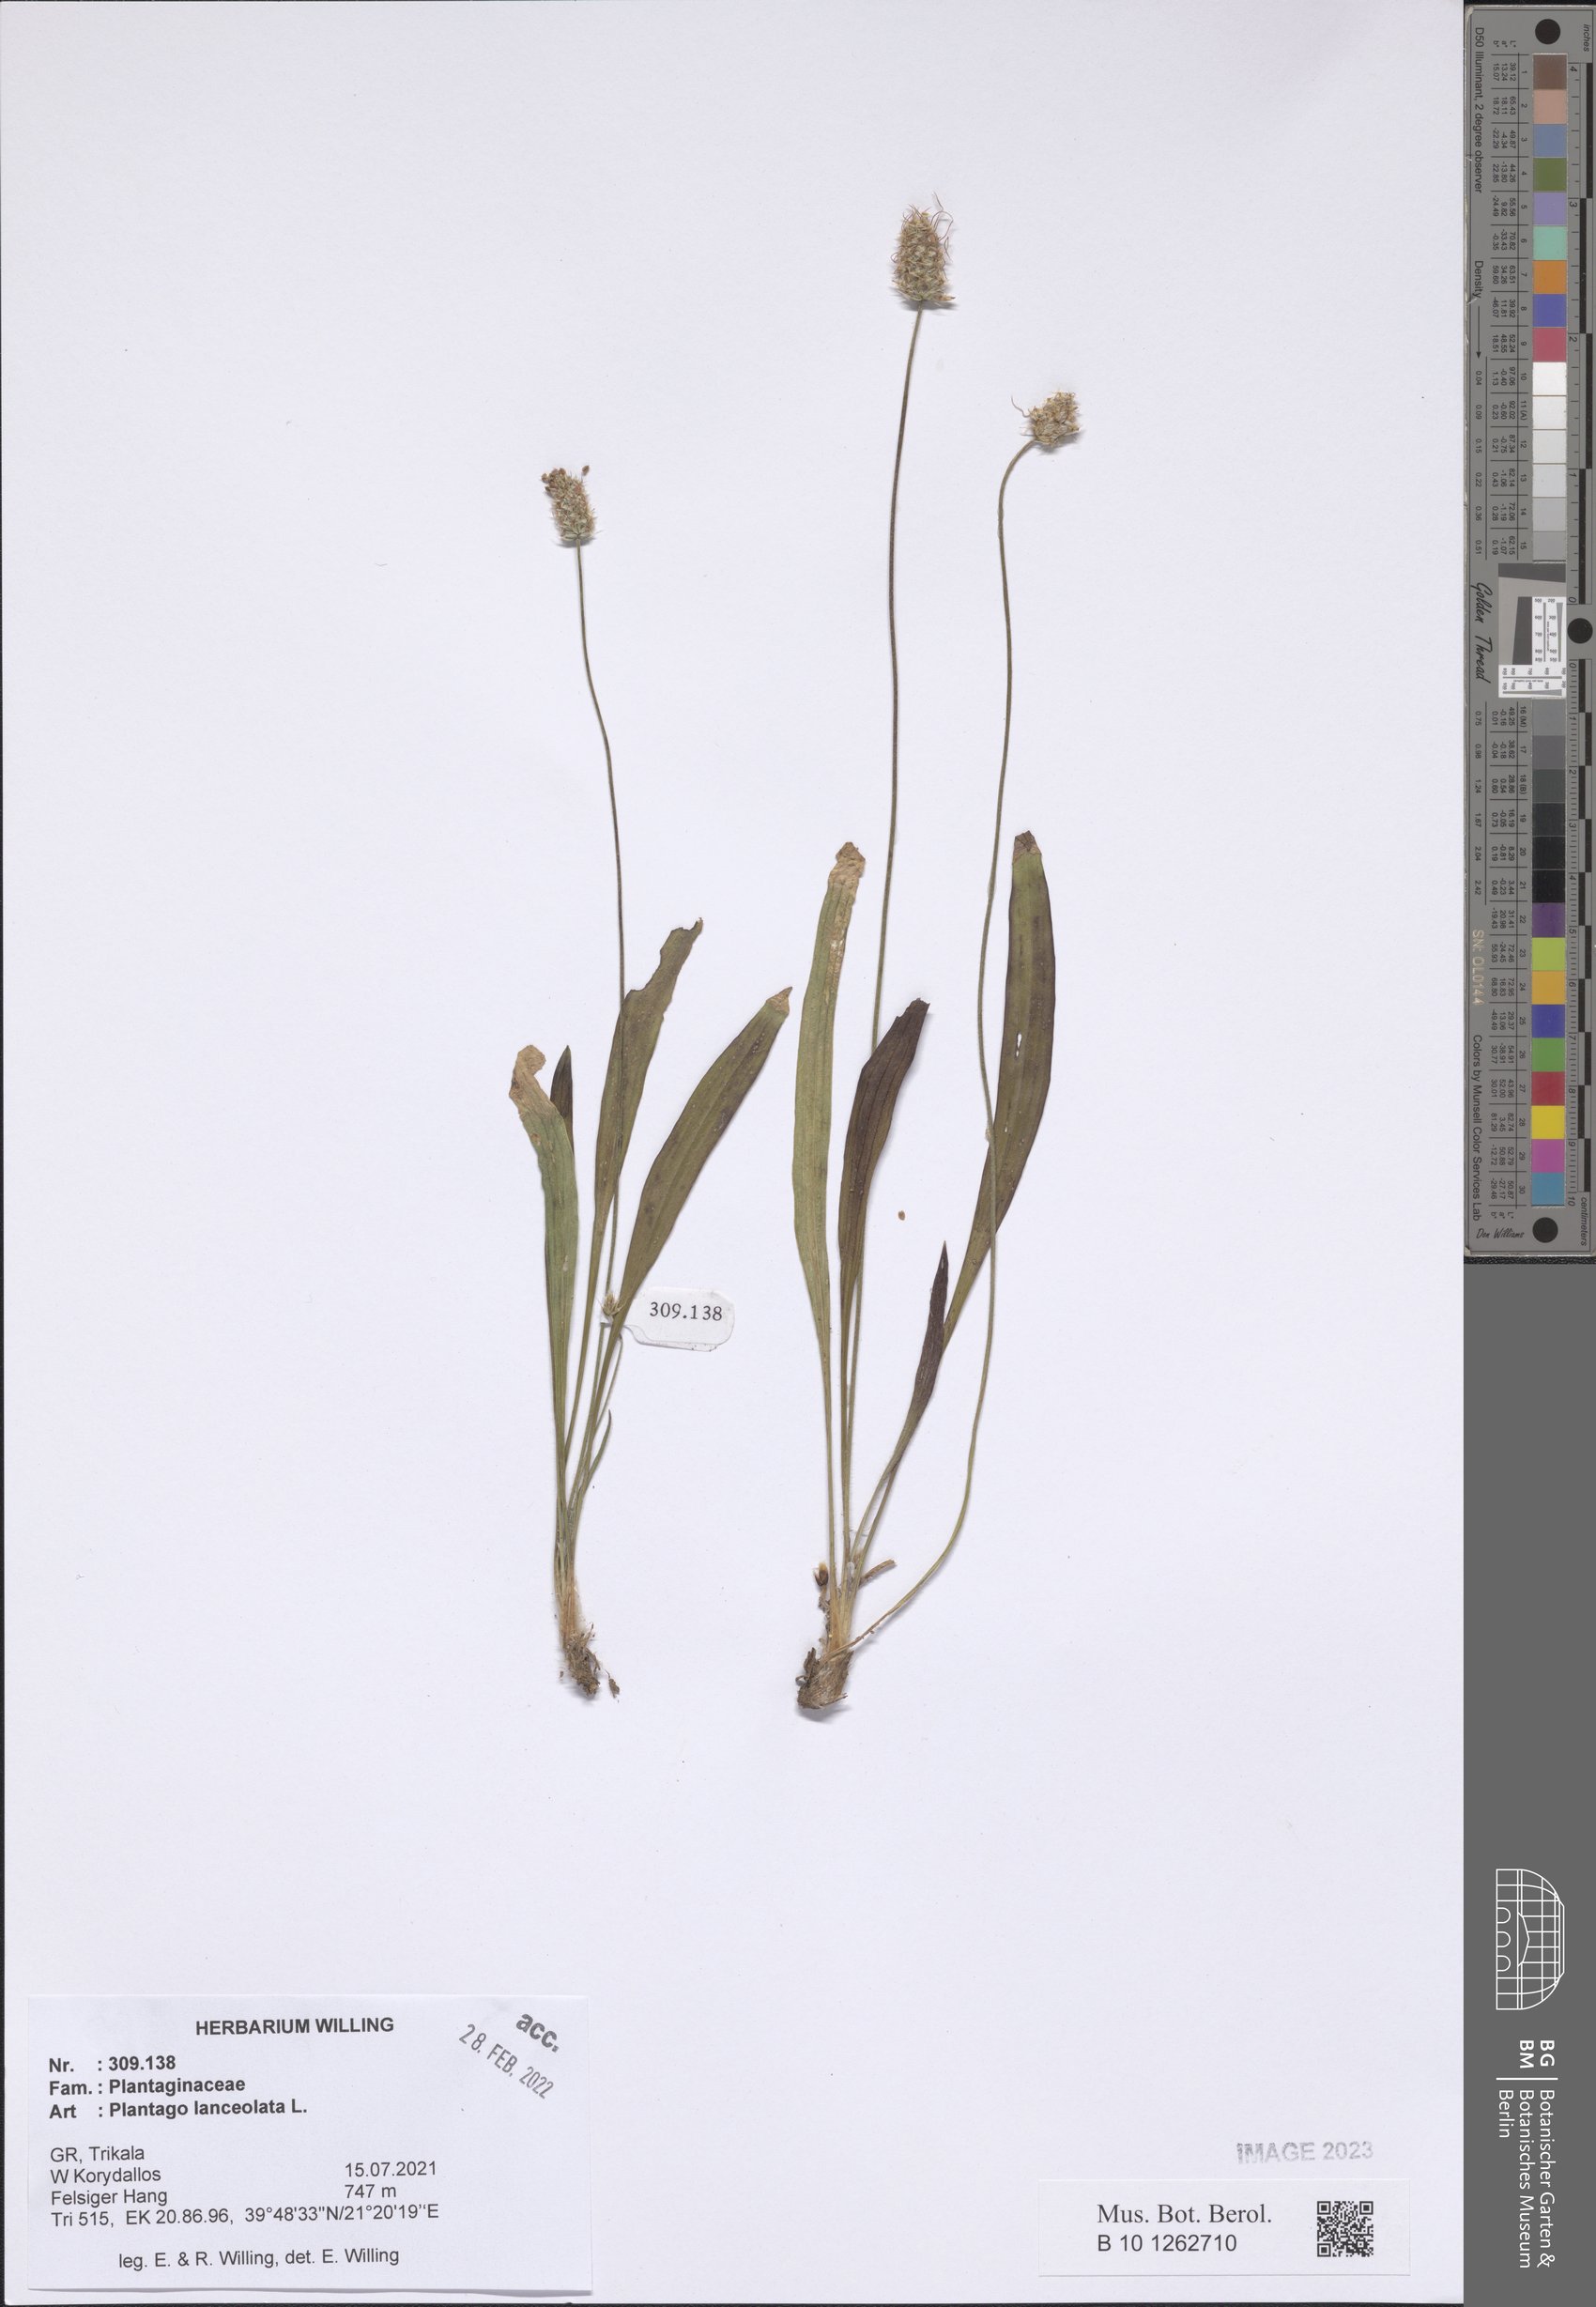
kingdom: Plantae
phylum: Tracheophyta
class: Magnoliopsida
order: Lamiales
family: Plantaginaceae
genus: Plantago
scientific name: Plantago lanceolata
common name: Ribwort plantain
